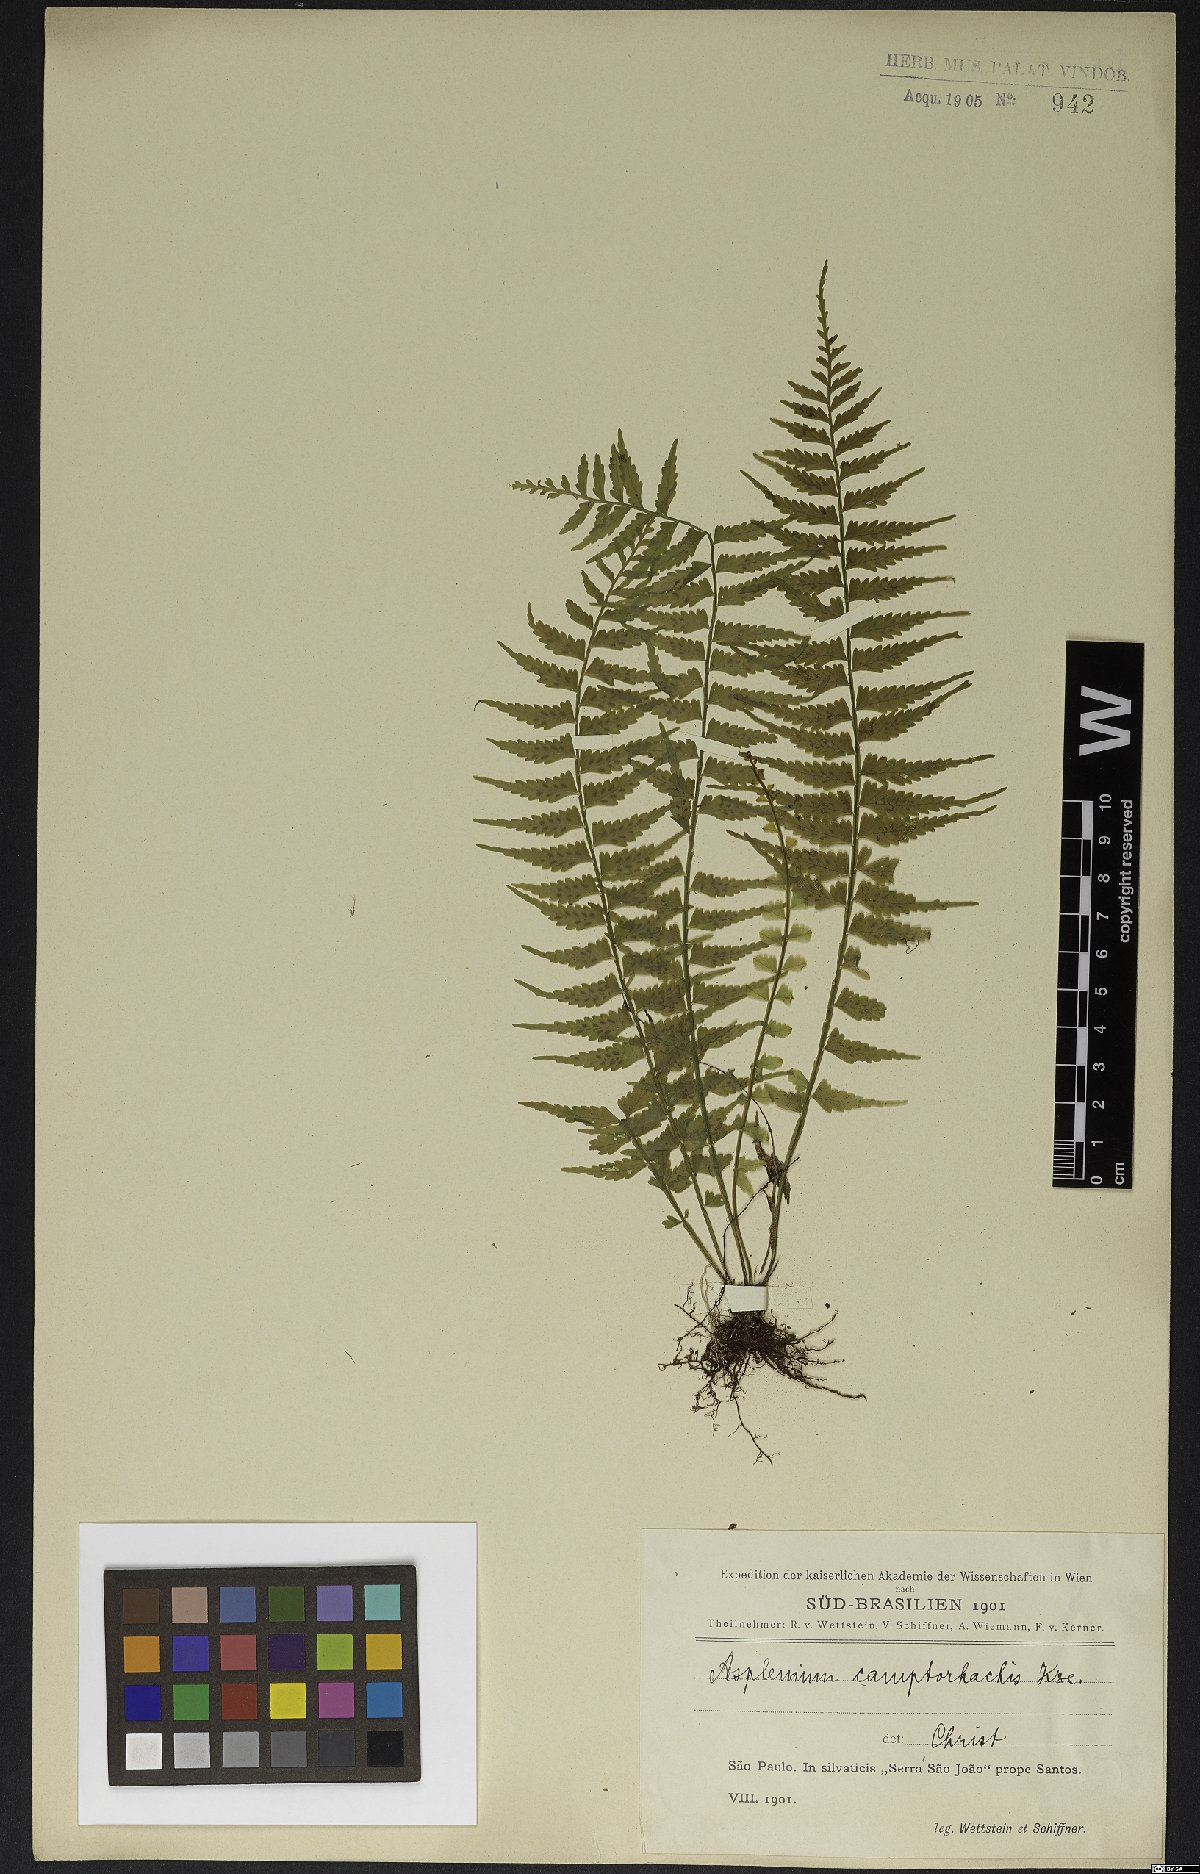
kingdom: Plantae
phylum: Tracheophyta
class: Polypodiopsida
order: Polypodiales
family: Aspleniaceae
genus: Asplenium
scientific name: Asplenium lunulatum
